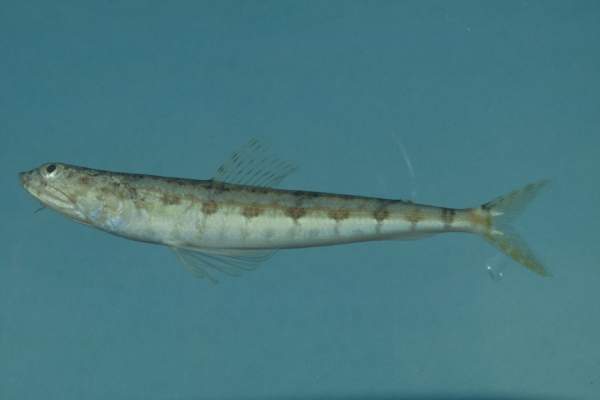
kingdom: Animalia
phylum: Chordata
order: Aulopiformes
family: Synodontidae
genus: Synodus
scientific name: Synodus variegatus
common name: Variegated lizardfish
